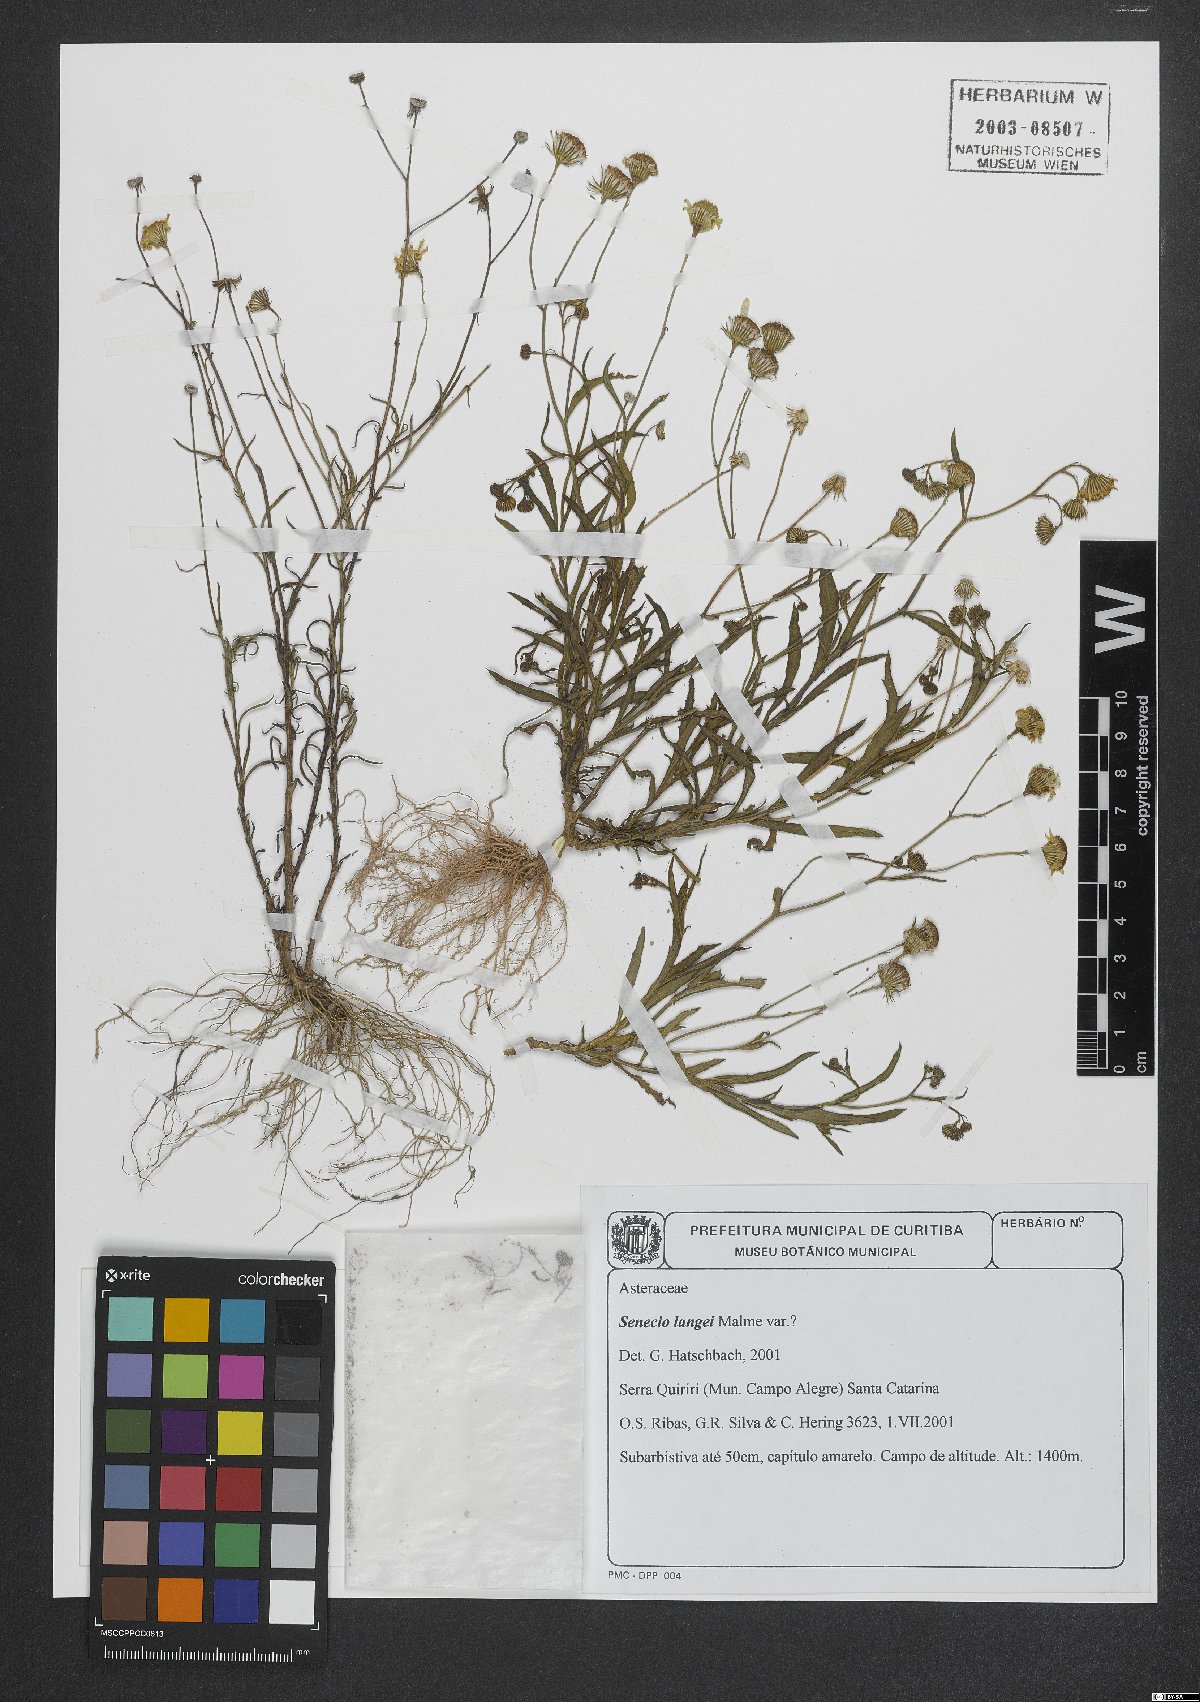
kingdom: Plantae
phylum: Tracheophyta
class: Magnoliopsida
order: Asterales
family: Asteraceae
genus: Senecio
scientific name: Senecio langei
